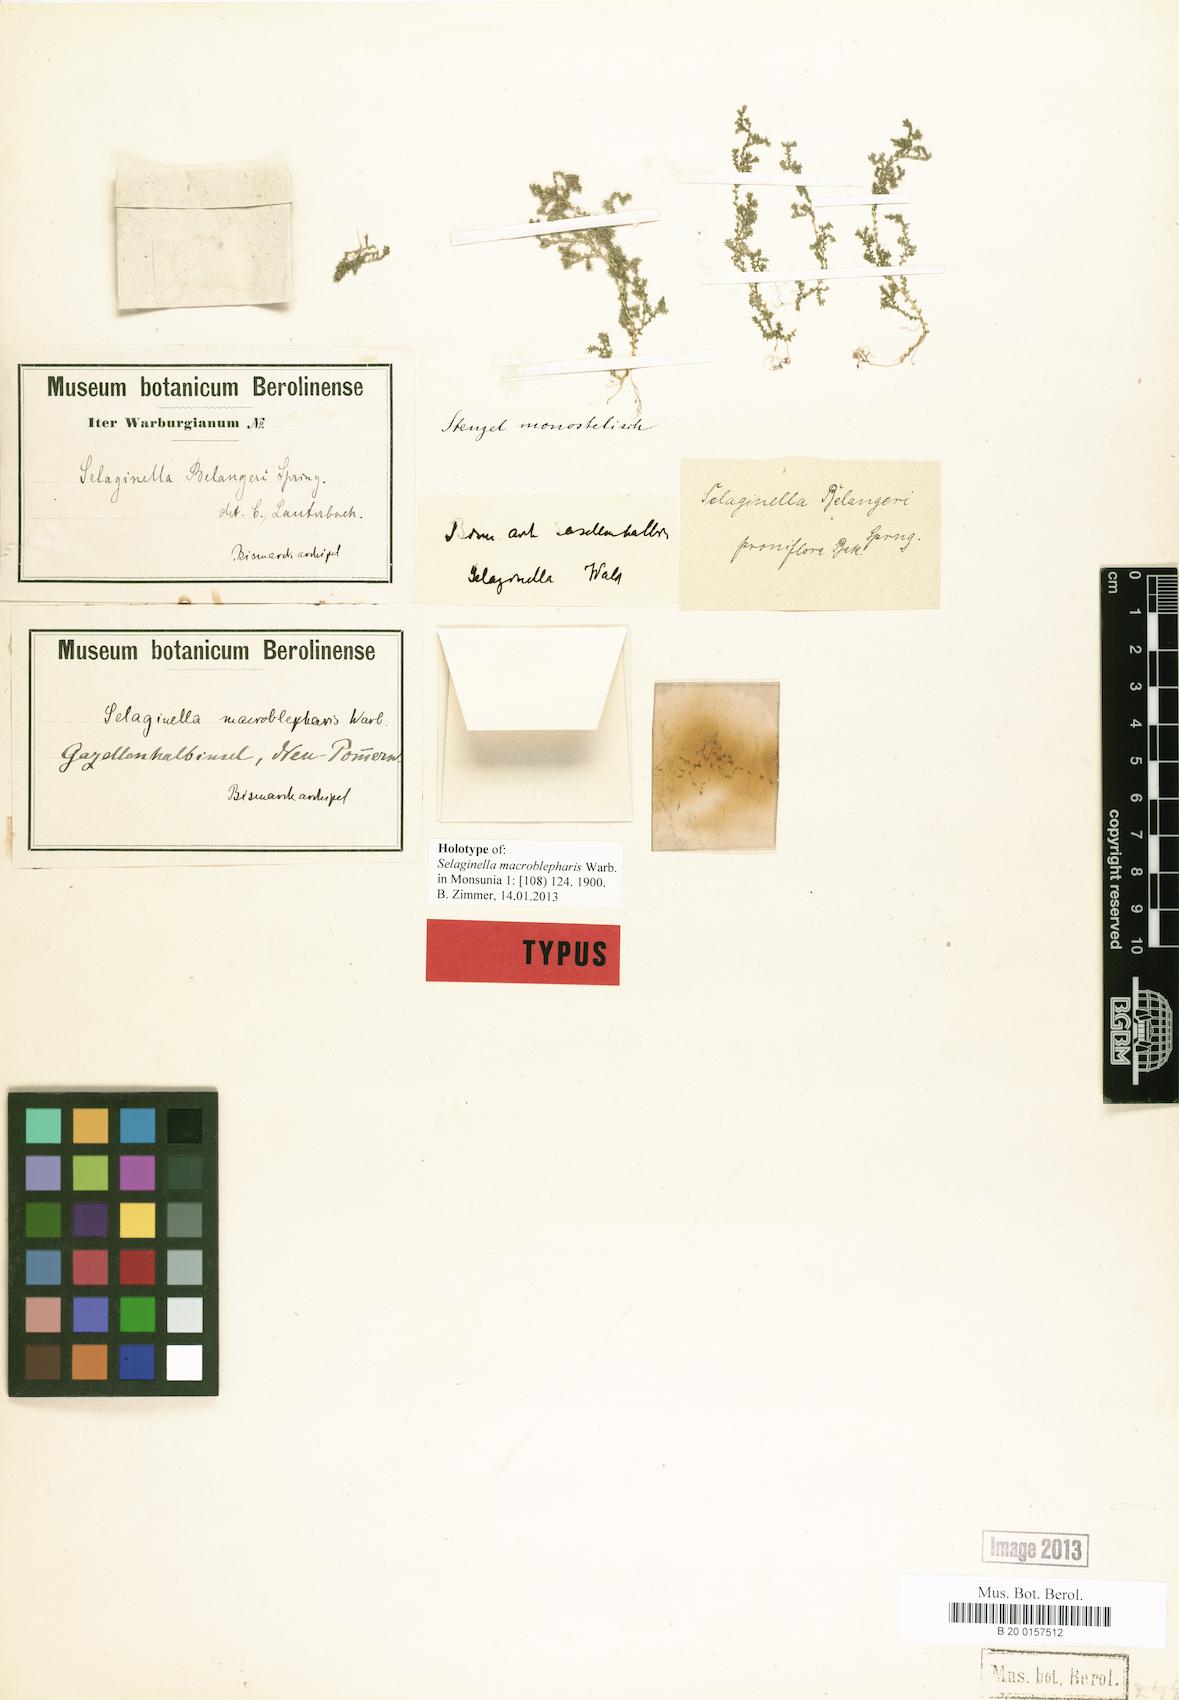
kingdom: Plantae
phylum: Tracheophyta
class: Lycopodiopsida
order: Selaginellales
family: Selaginellaceae
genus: Selaginella
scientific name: Selaginella macroblepharis
